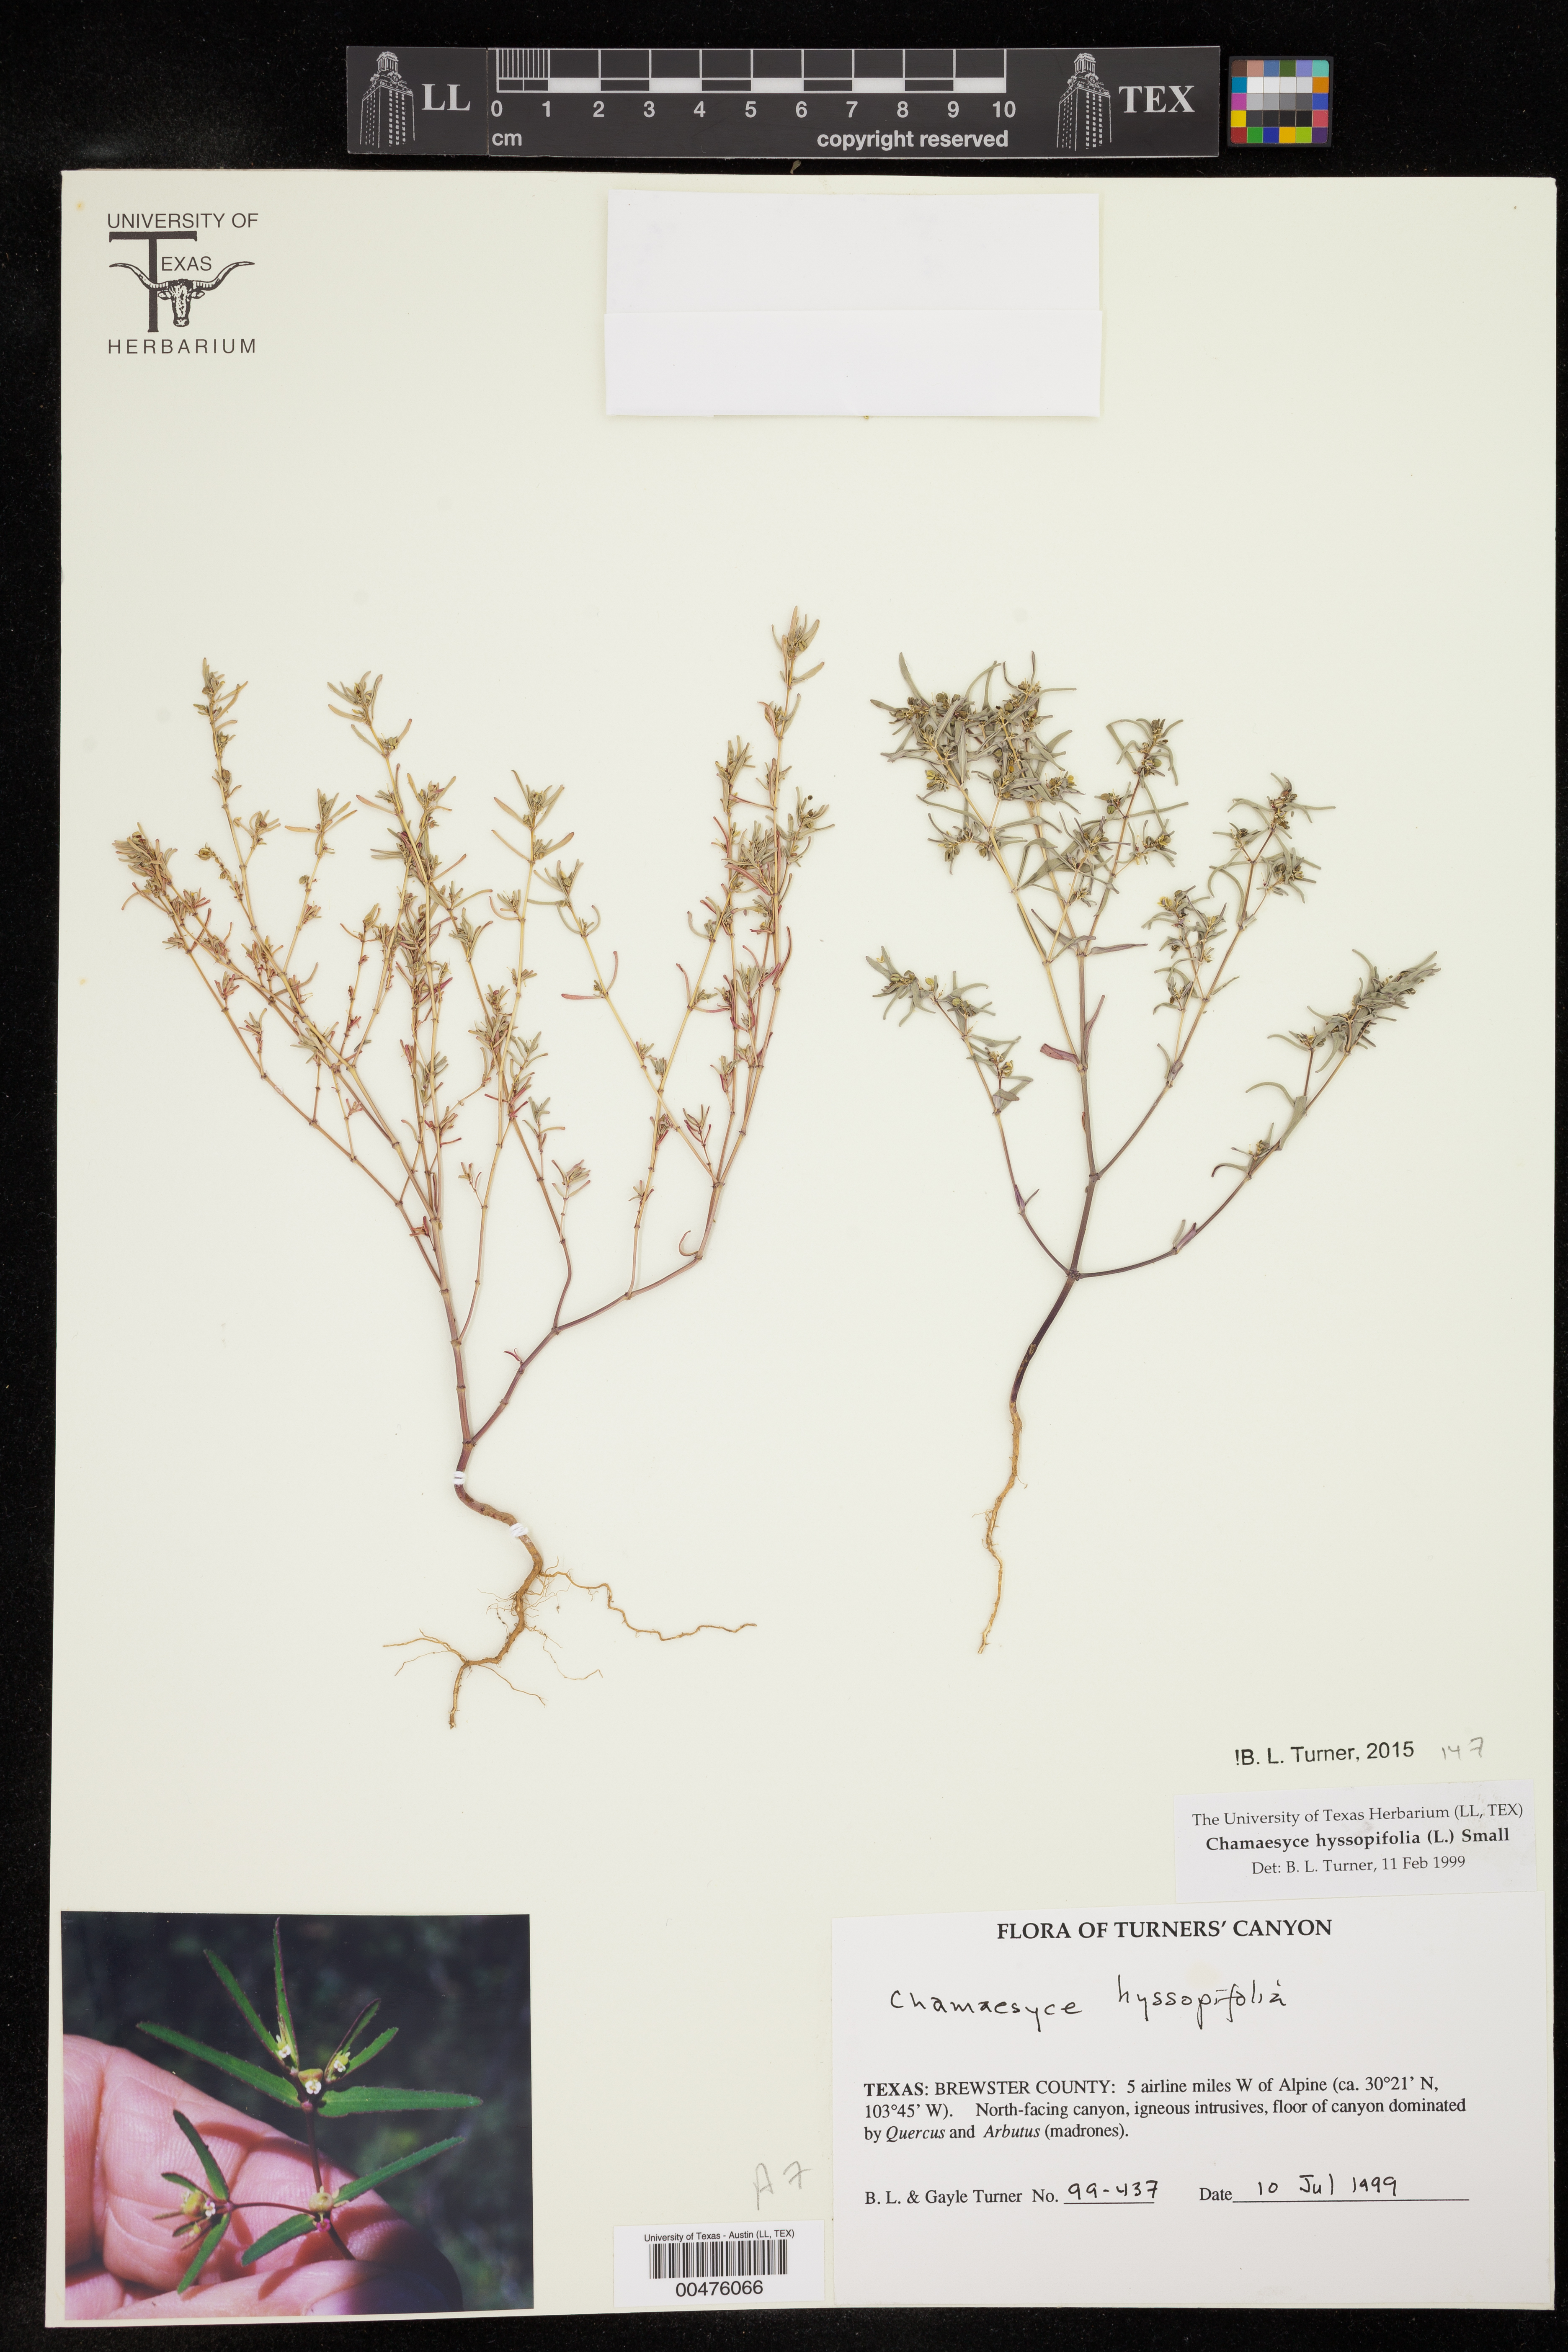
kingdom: Plantae
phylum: Tracheophyta
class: Magnoliopsida
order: Malpighiales
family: Euphorbiaceae
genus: Euphorbia
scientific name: Euphorbia hyssopifolia
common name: Hyssopleaf sandmat
